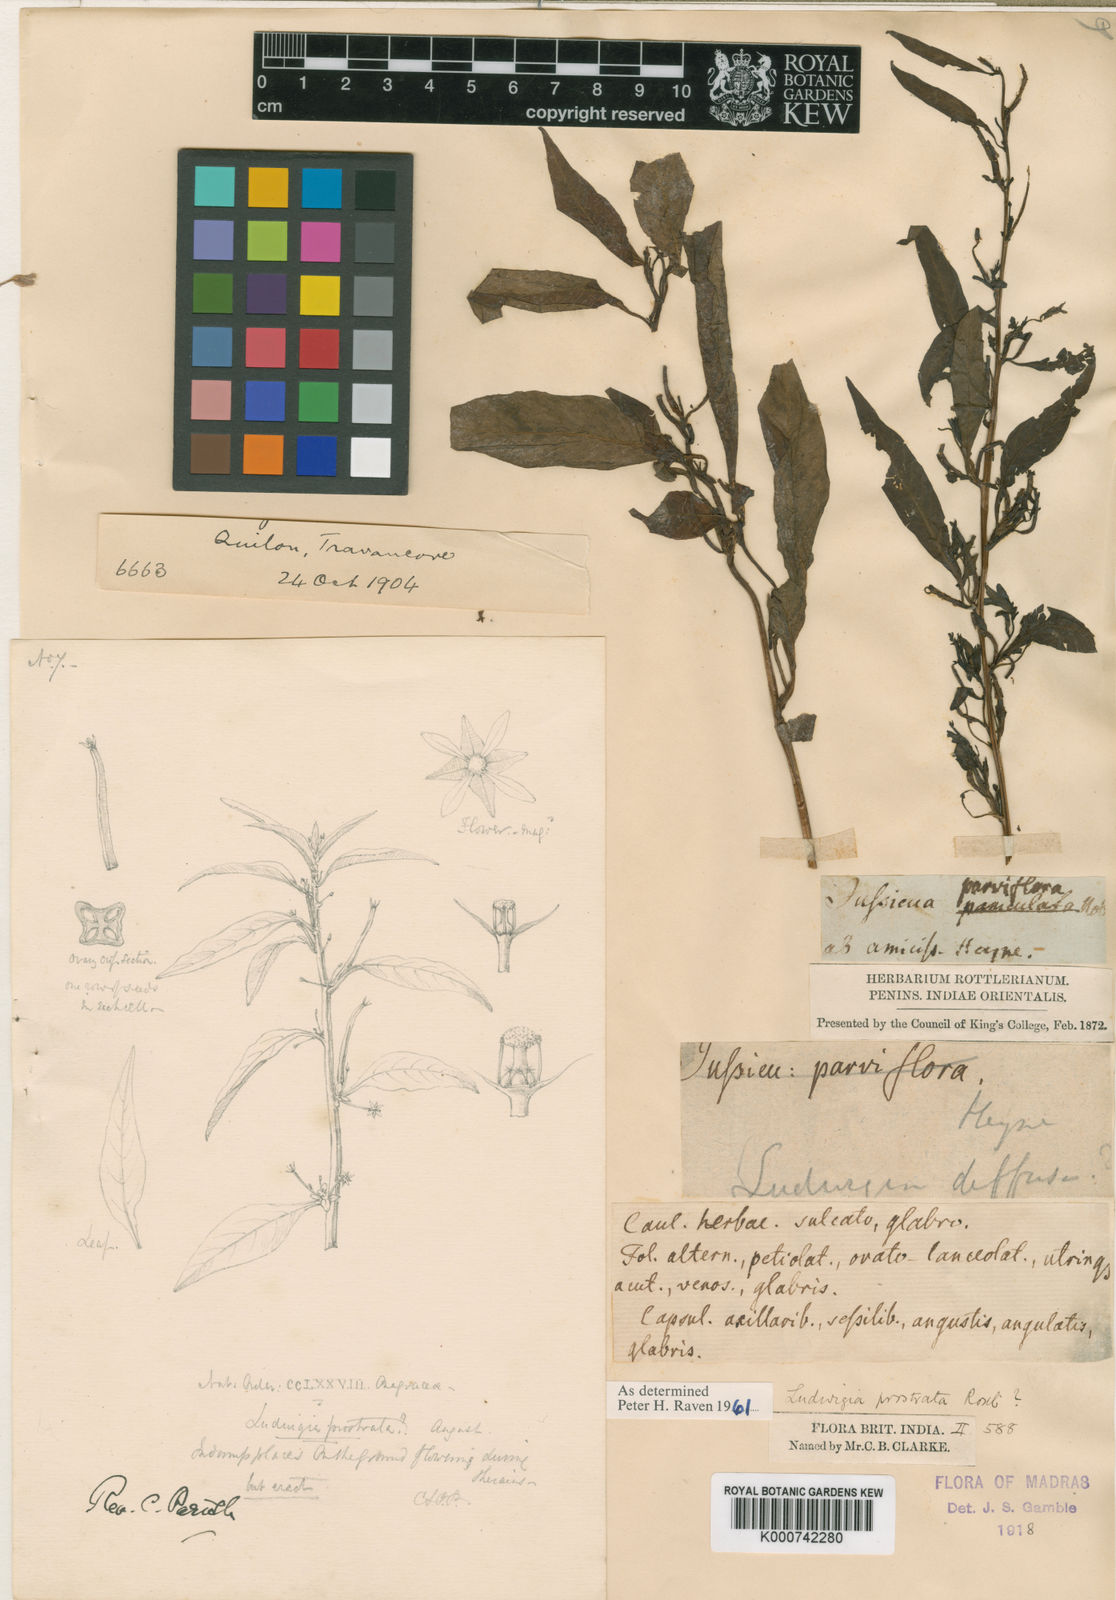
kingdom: Plantae
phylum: Tracheophyta
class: Magnoliopsida
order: Myrtales
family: Onagraceae
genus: Ludwigia
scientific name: Ludwigia prostrata
